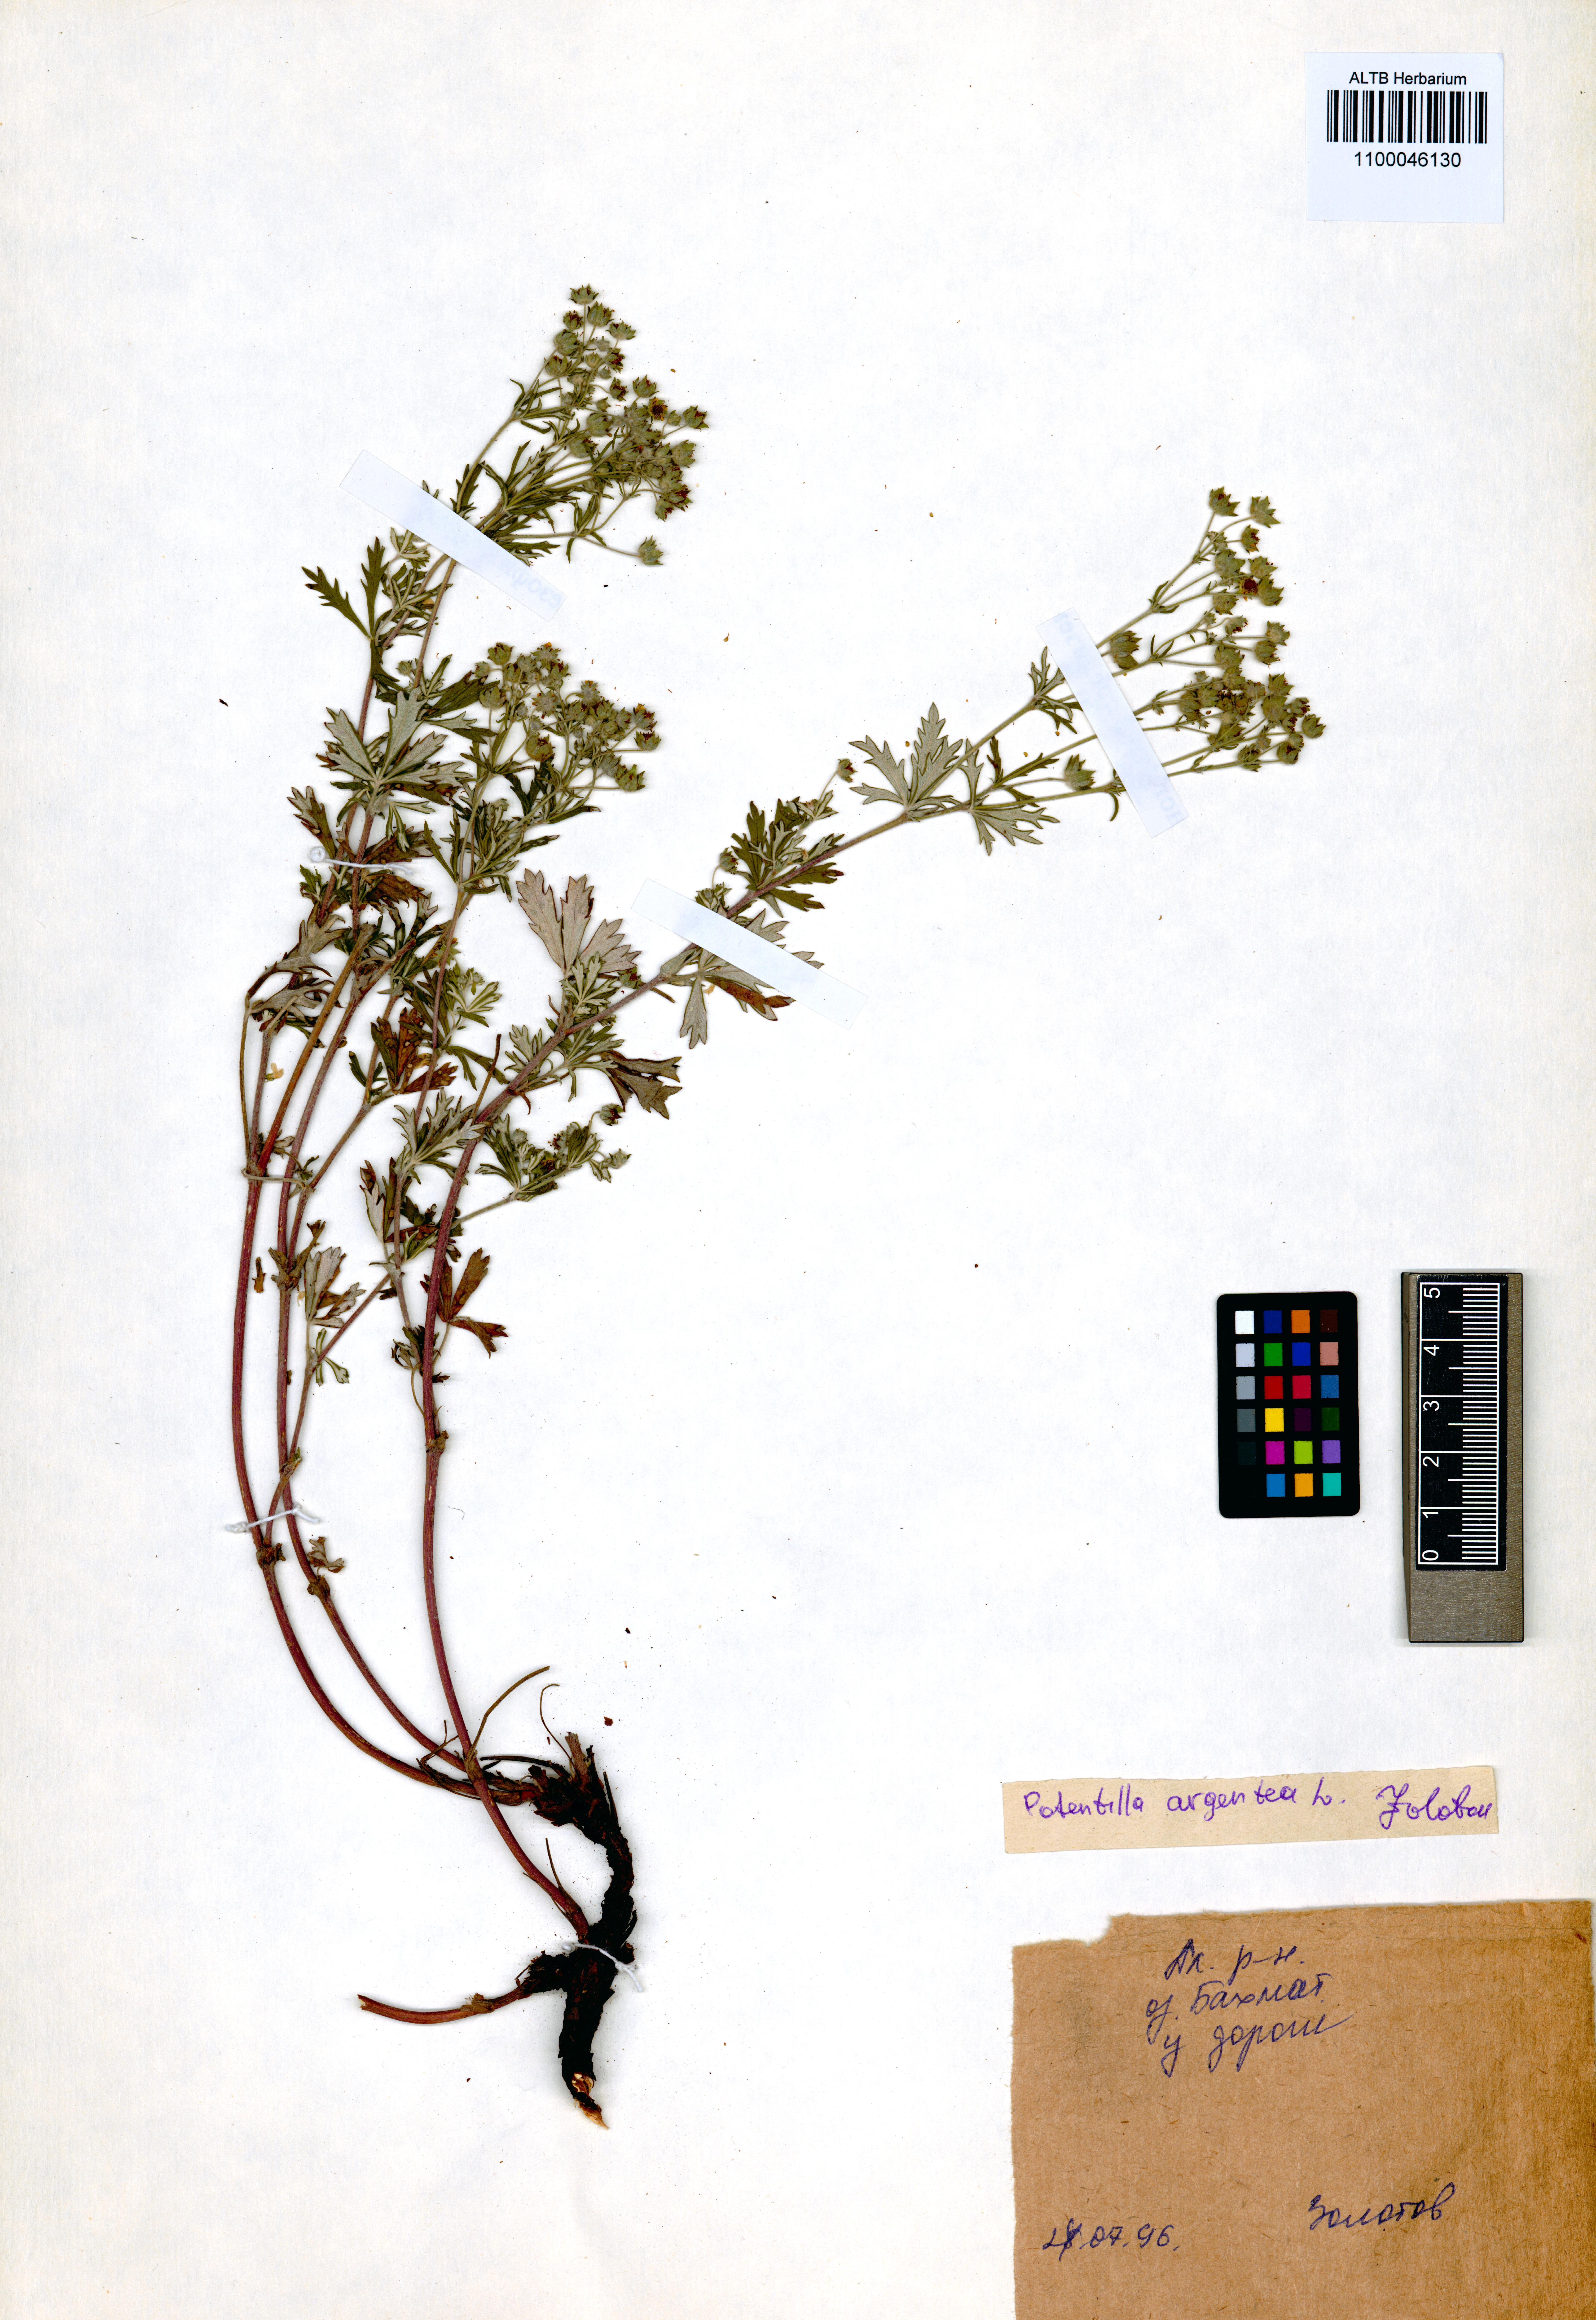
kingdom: Plantae
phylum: Tracheophyta
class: Magnoliopsida
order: Rosales
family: Rosaceae
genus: Potentilla
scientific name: Potentilla argentea
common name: Hoary cinquefoil
